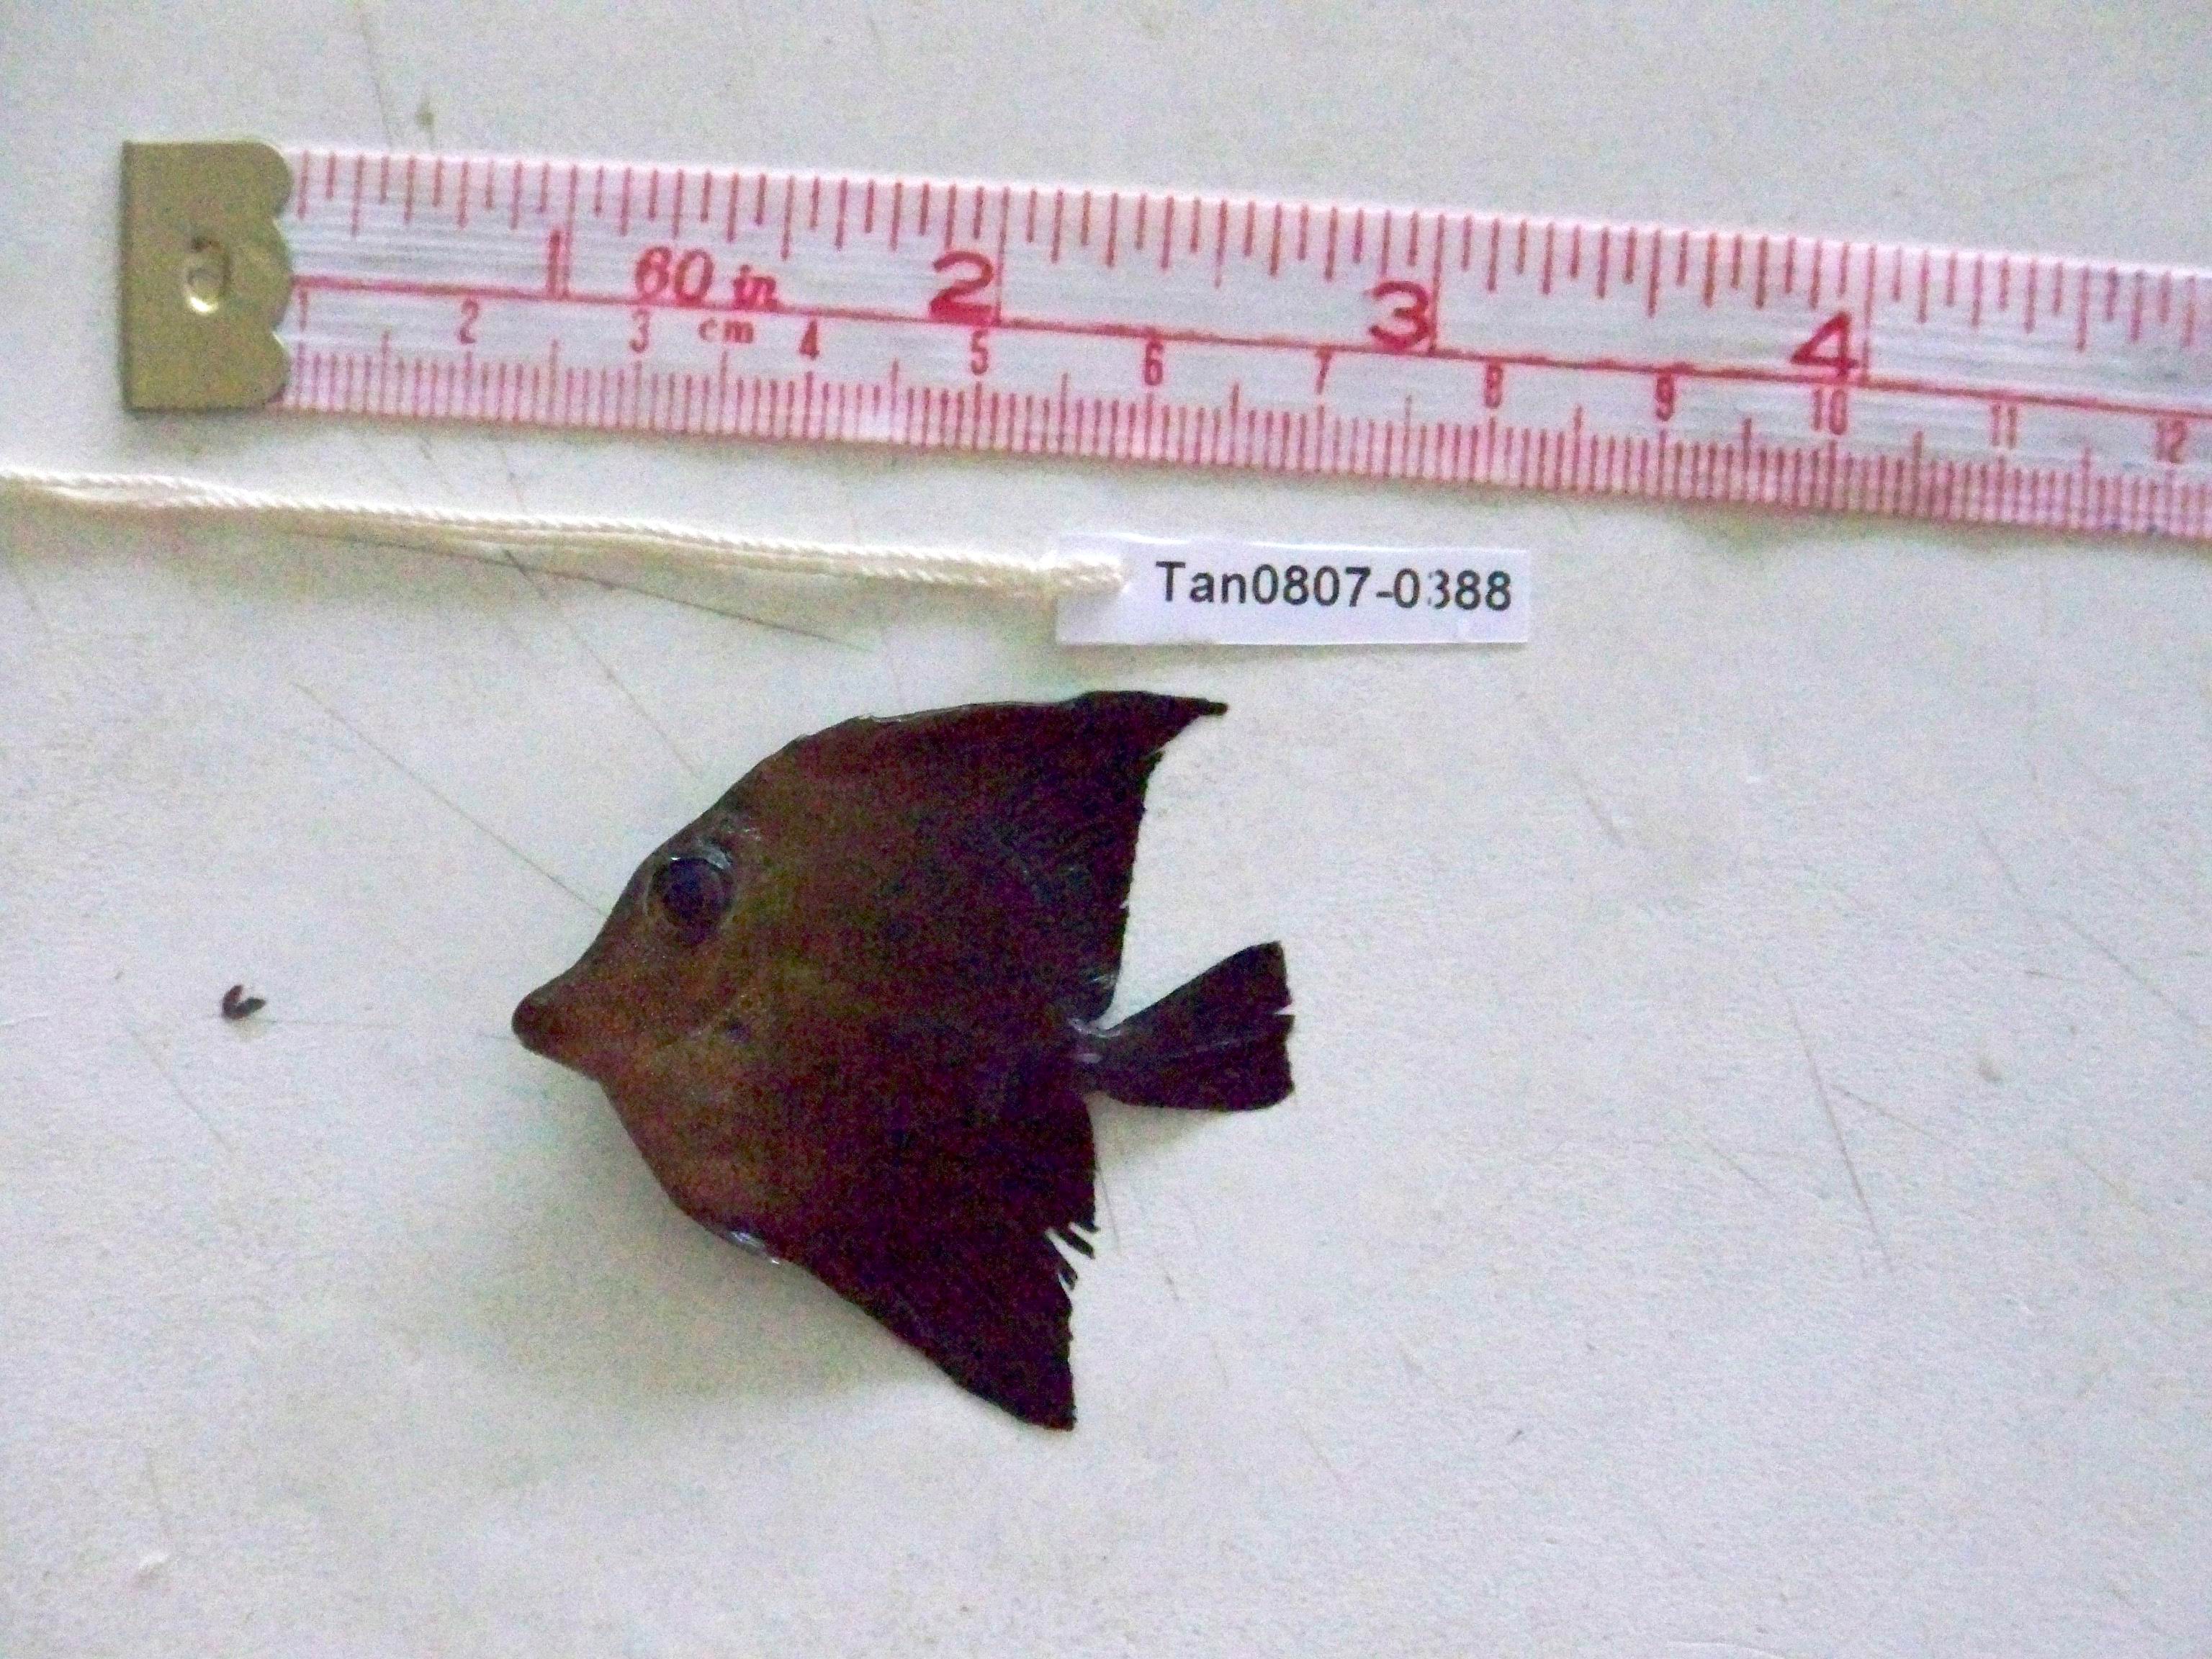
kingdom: Animalia
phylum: Chordata
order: Perciformes
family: Acanthuridae
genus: Zebrasoma
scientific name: Zebrasoma scopas
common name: Twotone tang
